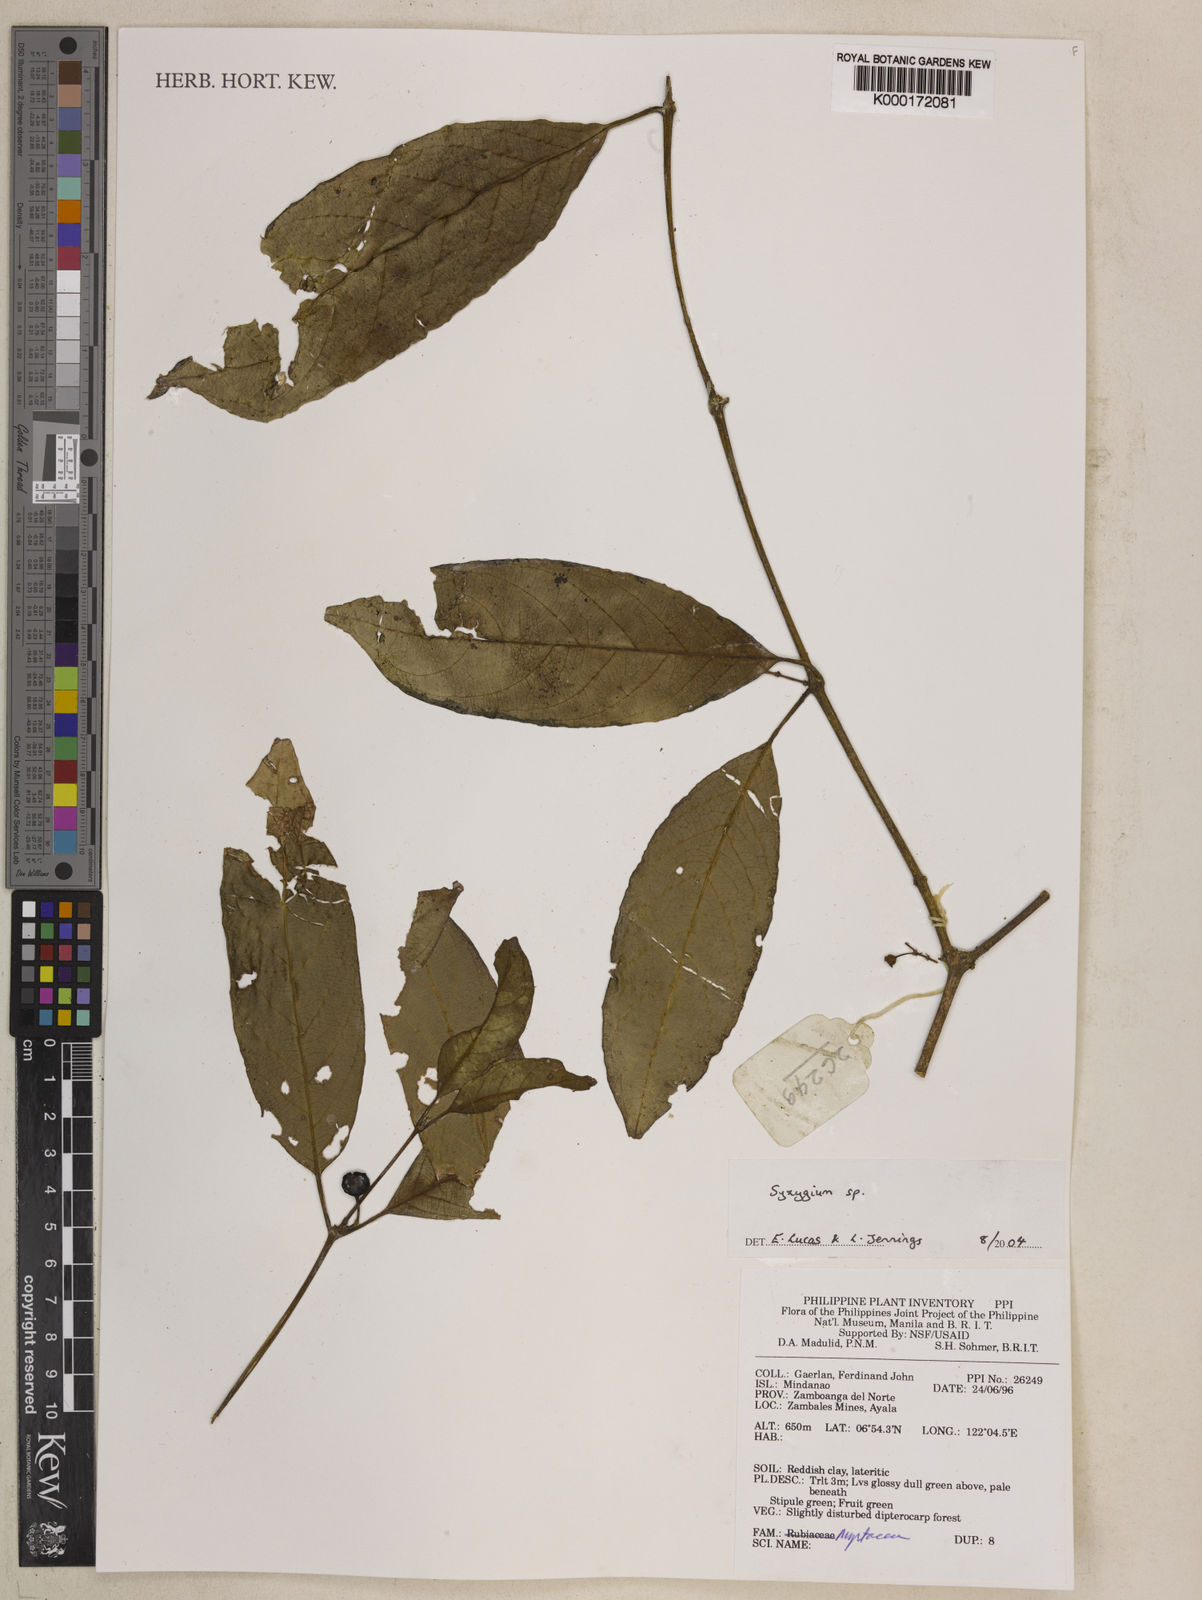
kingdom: Plantae
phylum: Tracheophyta
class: Magnoliopsida
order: Myrtales
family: Myrtaceae
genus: Syzygium
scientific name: Syzygium
